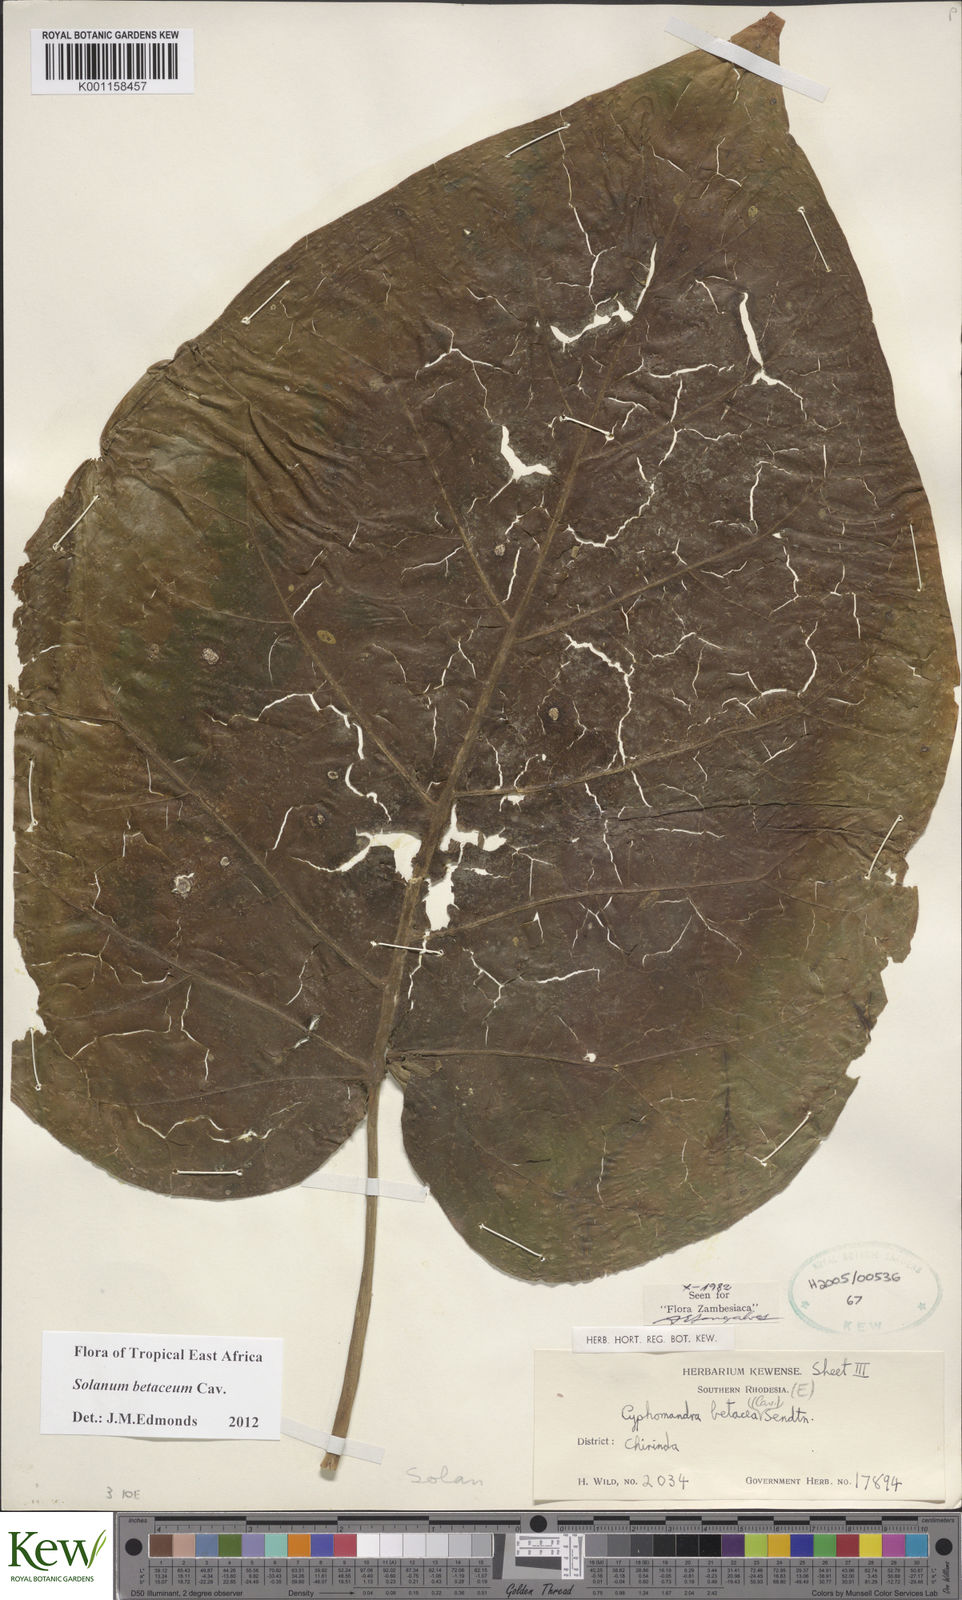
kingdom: Plantae
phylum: Tracheophyta
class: Magnoliopsida
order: Solanales
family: Solanaceae
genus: Solanum
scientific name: Solanum betaceum
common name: Tamarillo
